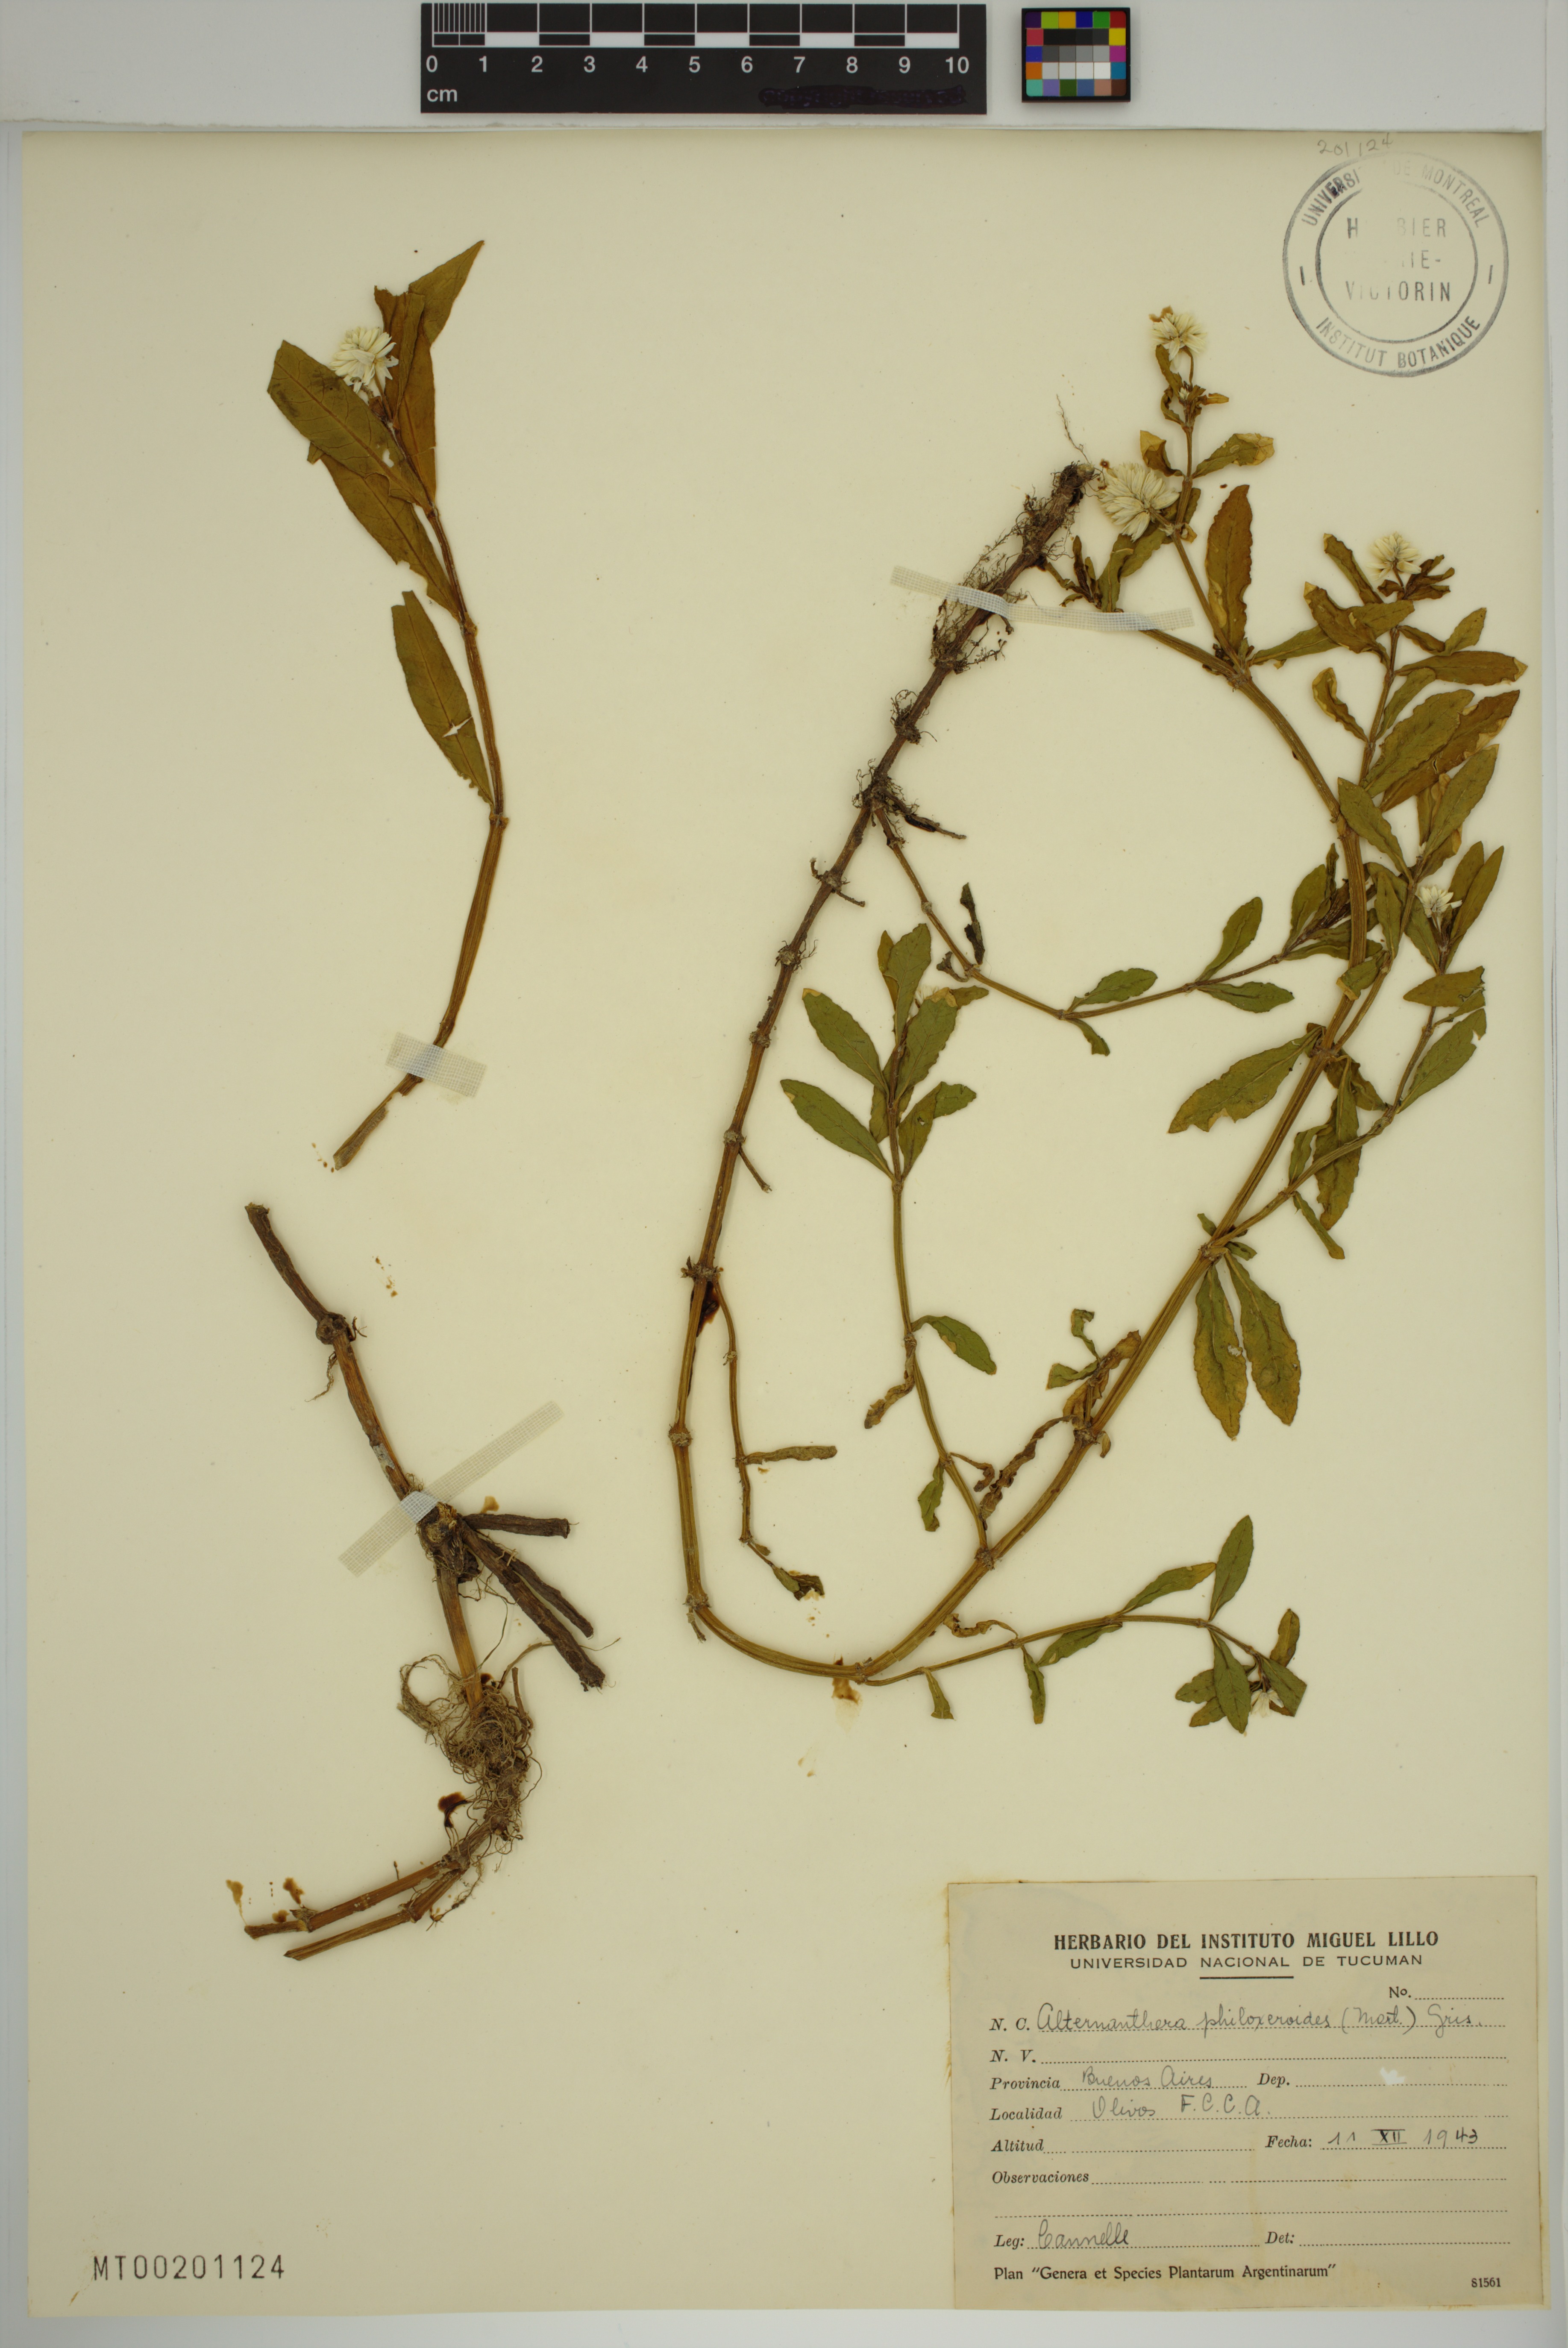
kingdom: Plantae
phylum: Tracheophyta
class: Magnoliopsida
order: Caryophyllales
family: Amaranthaceae
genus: Alternanthera
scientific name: Alternanthera philoxeroides
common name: Alligatorweed
